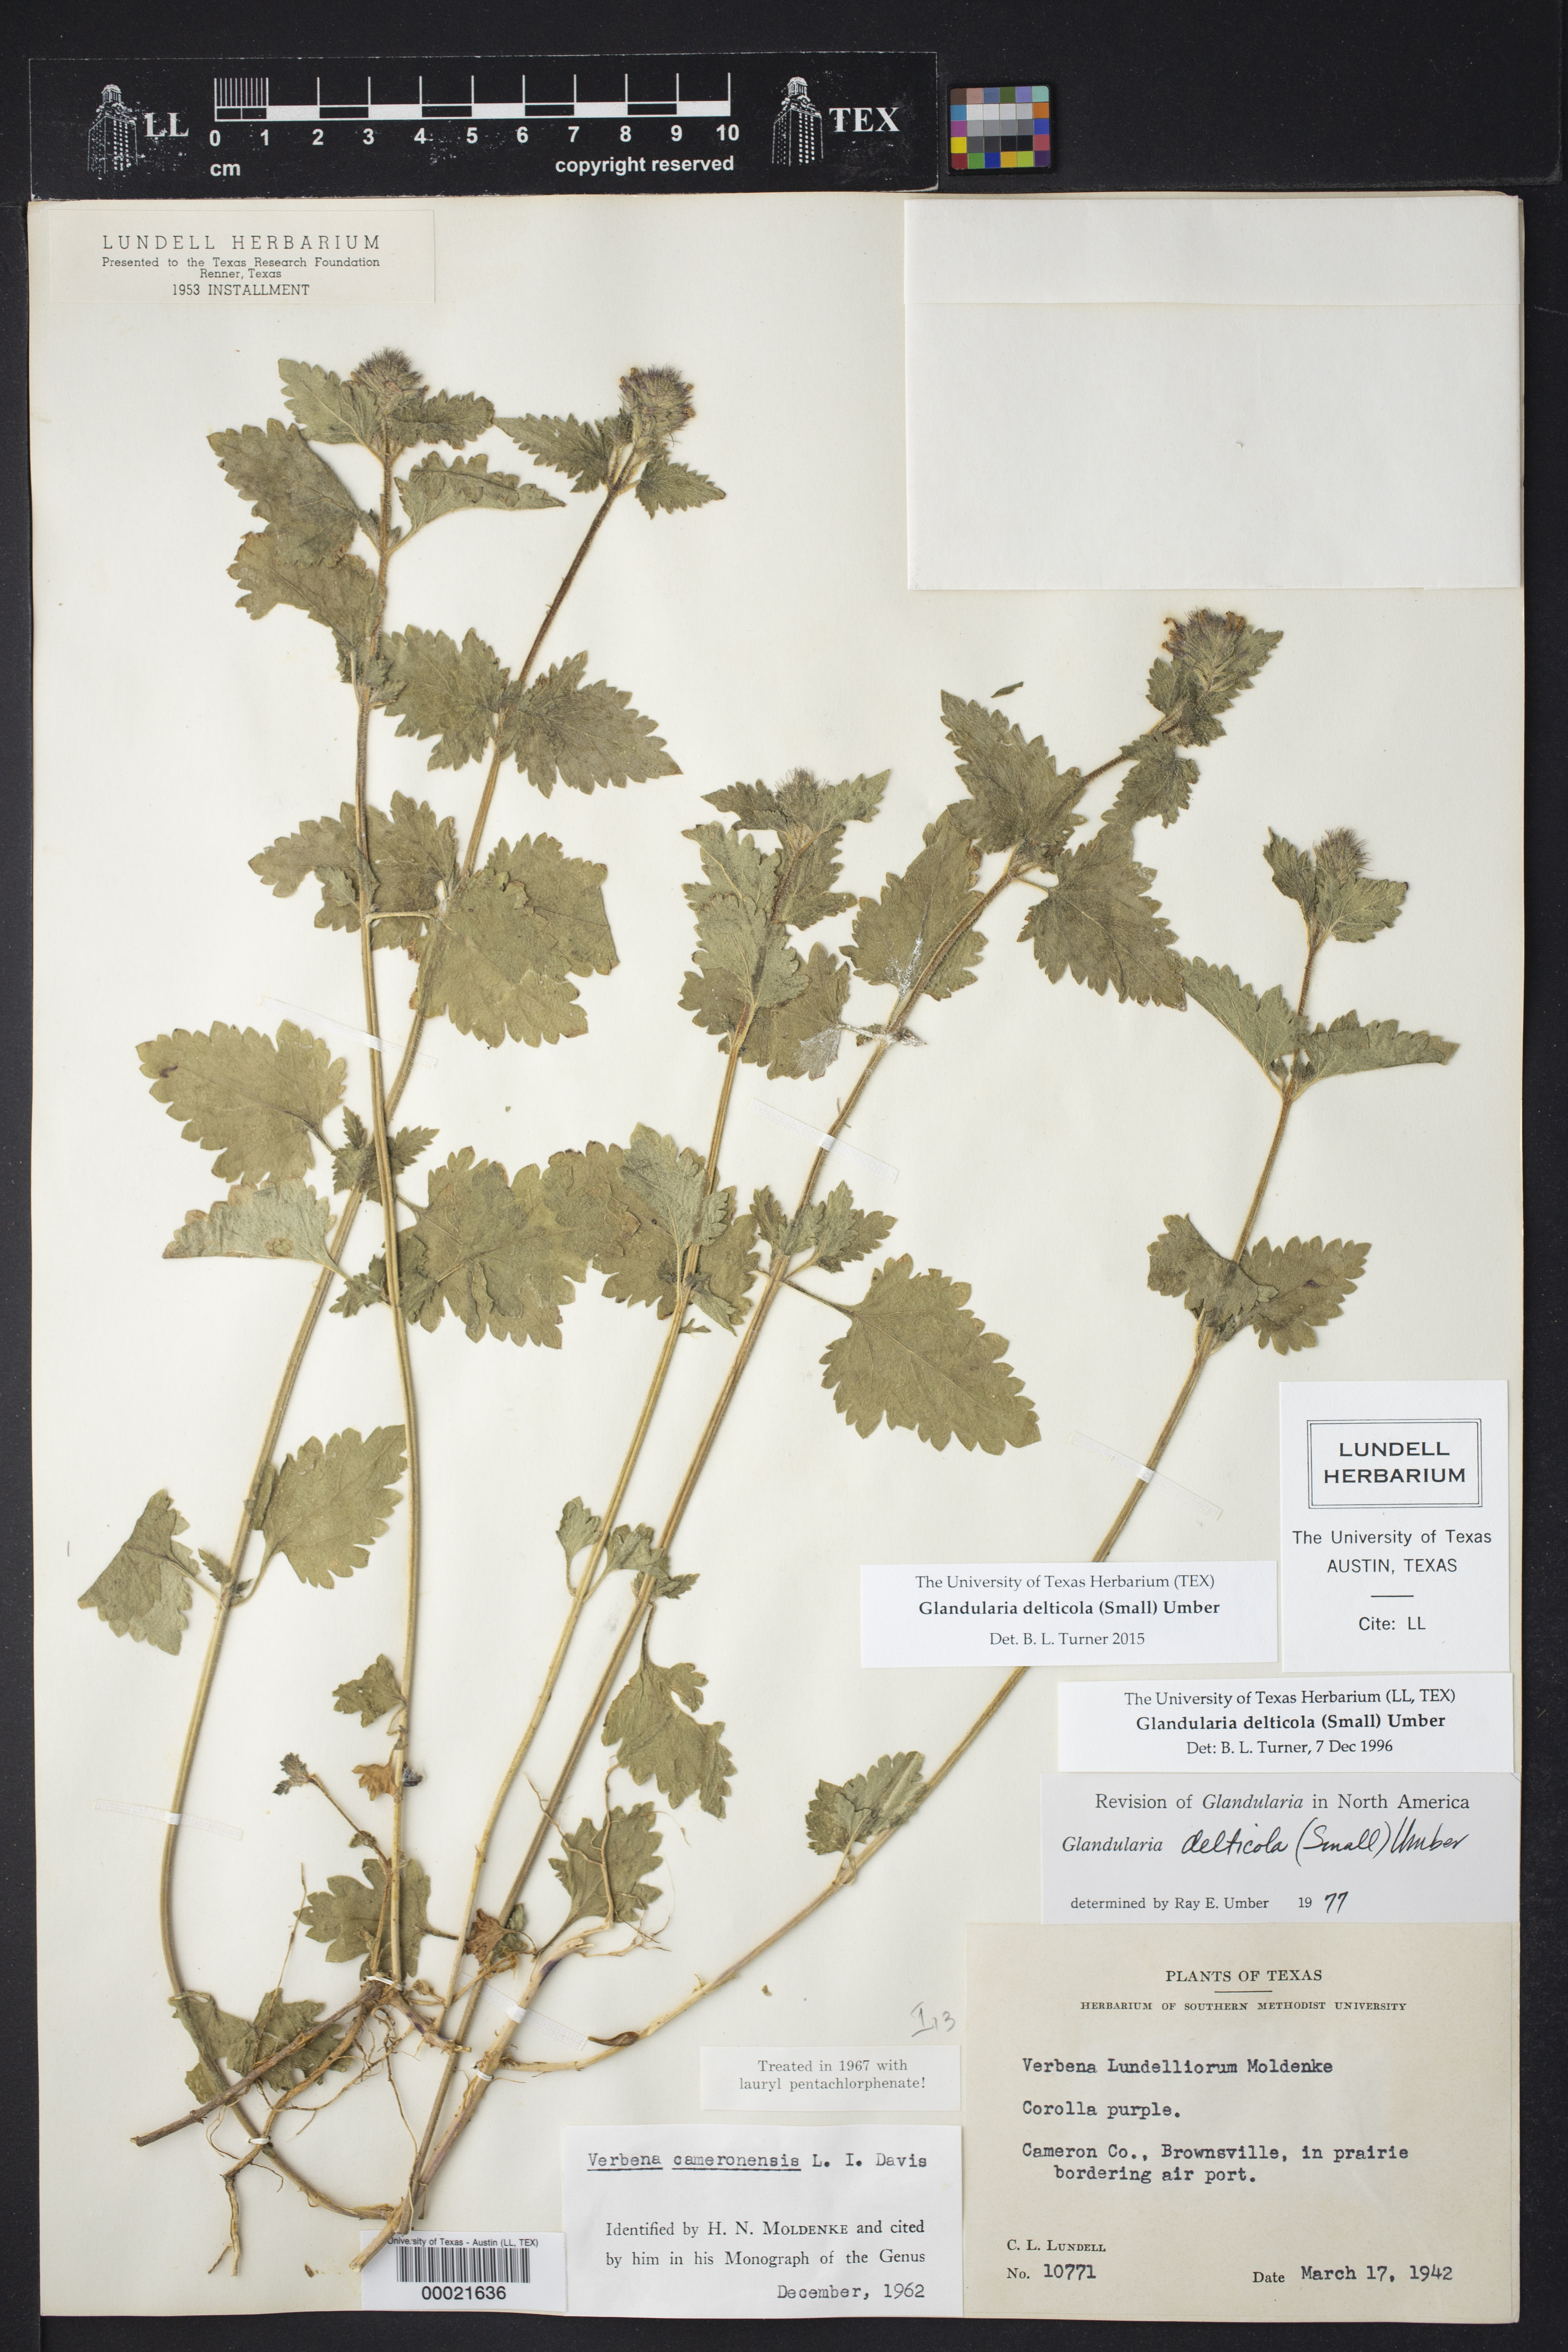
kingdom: Plantae
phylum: Tracheophyta
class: Magnoliopsida
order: Lamiales
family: Verbenaceae
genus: Verbena
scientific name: Verbena delticola
